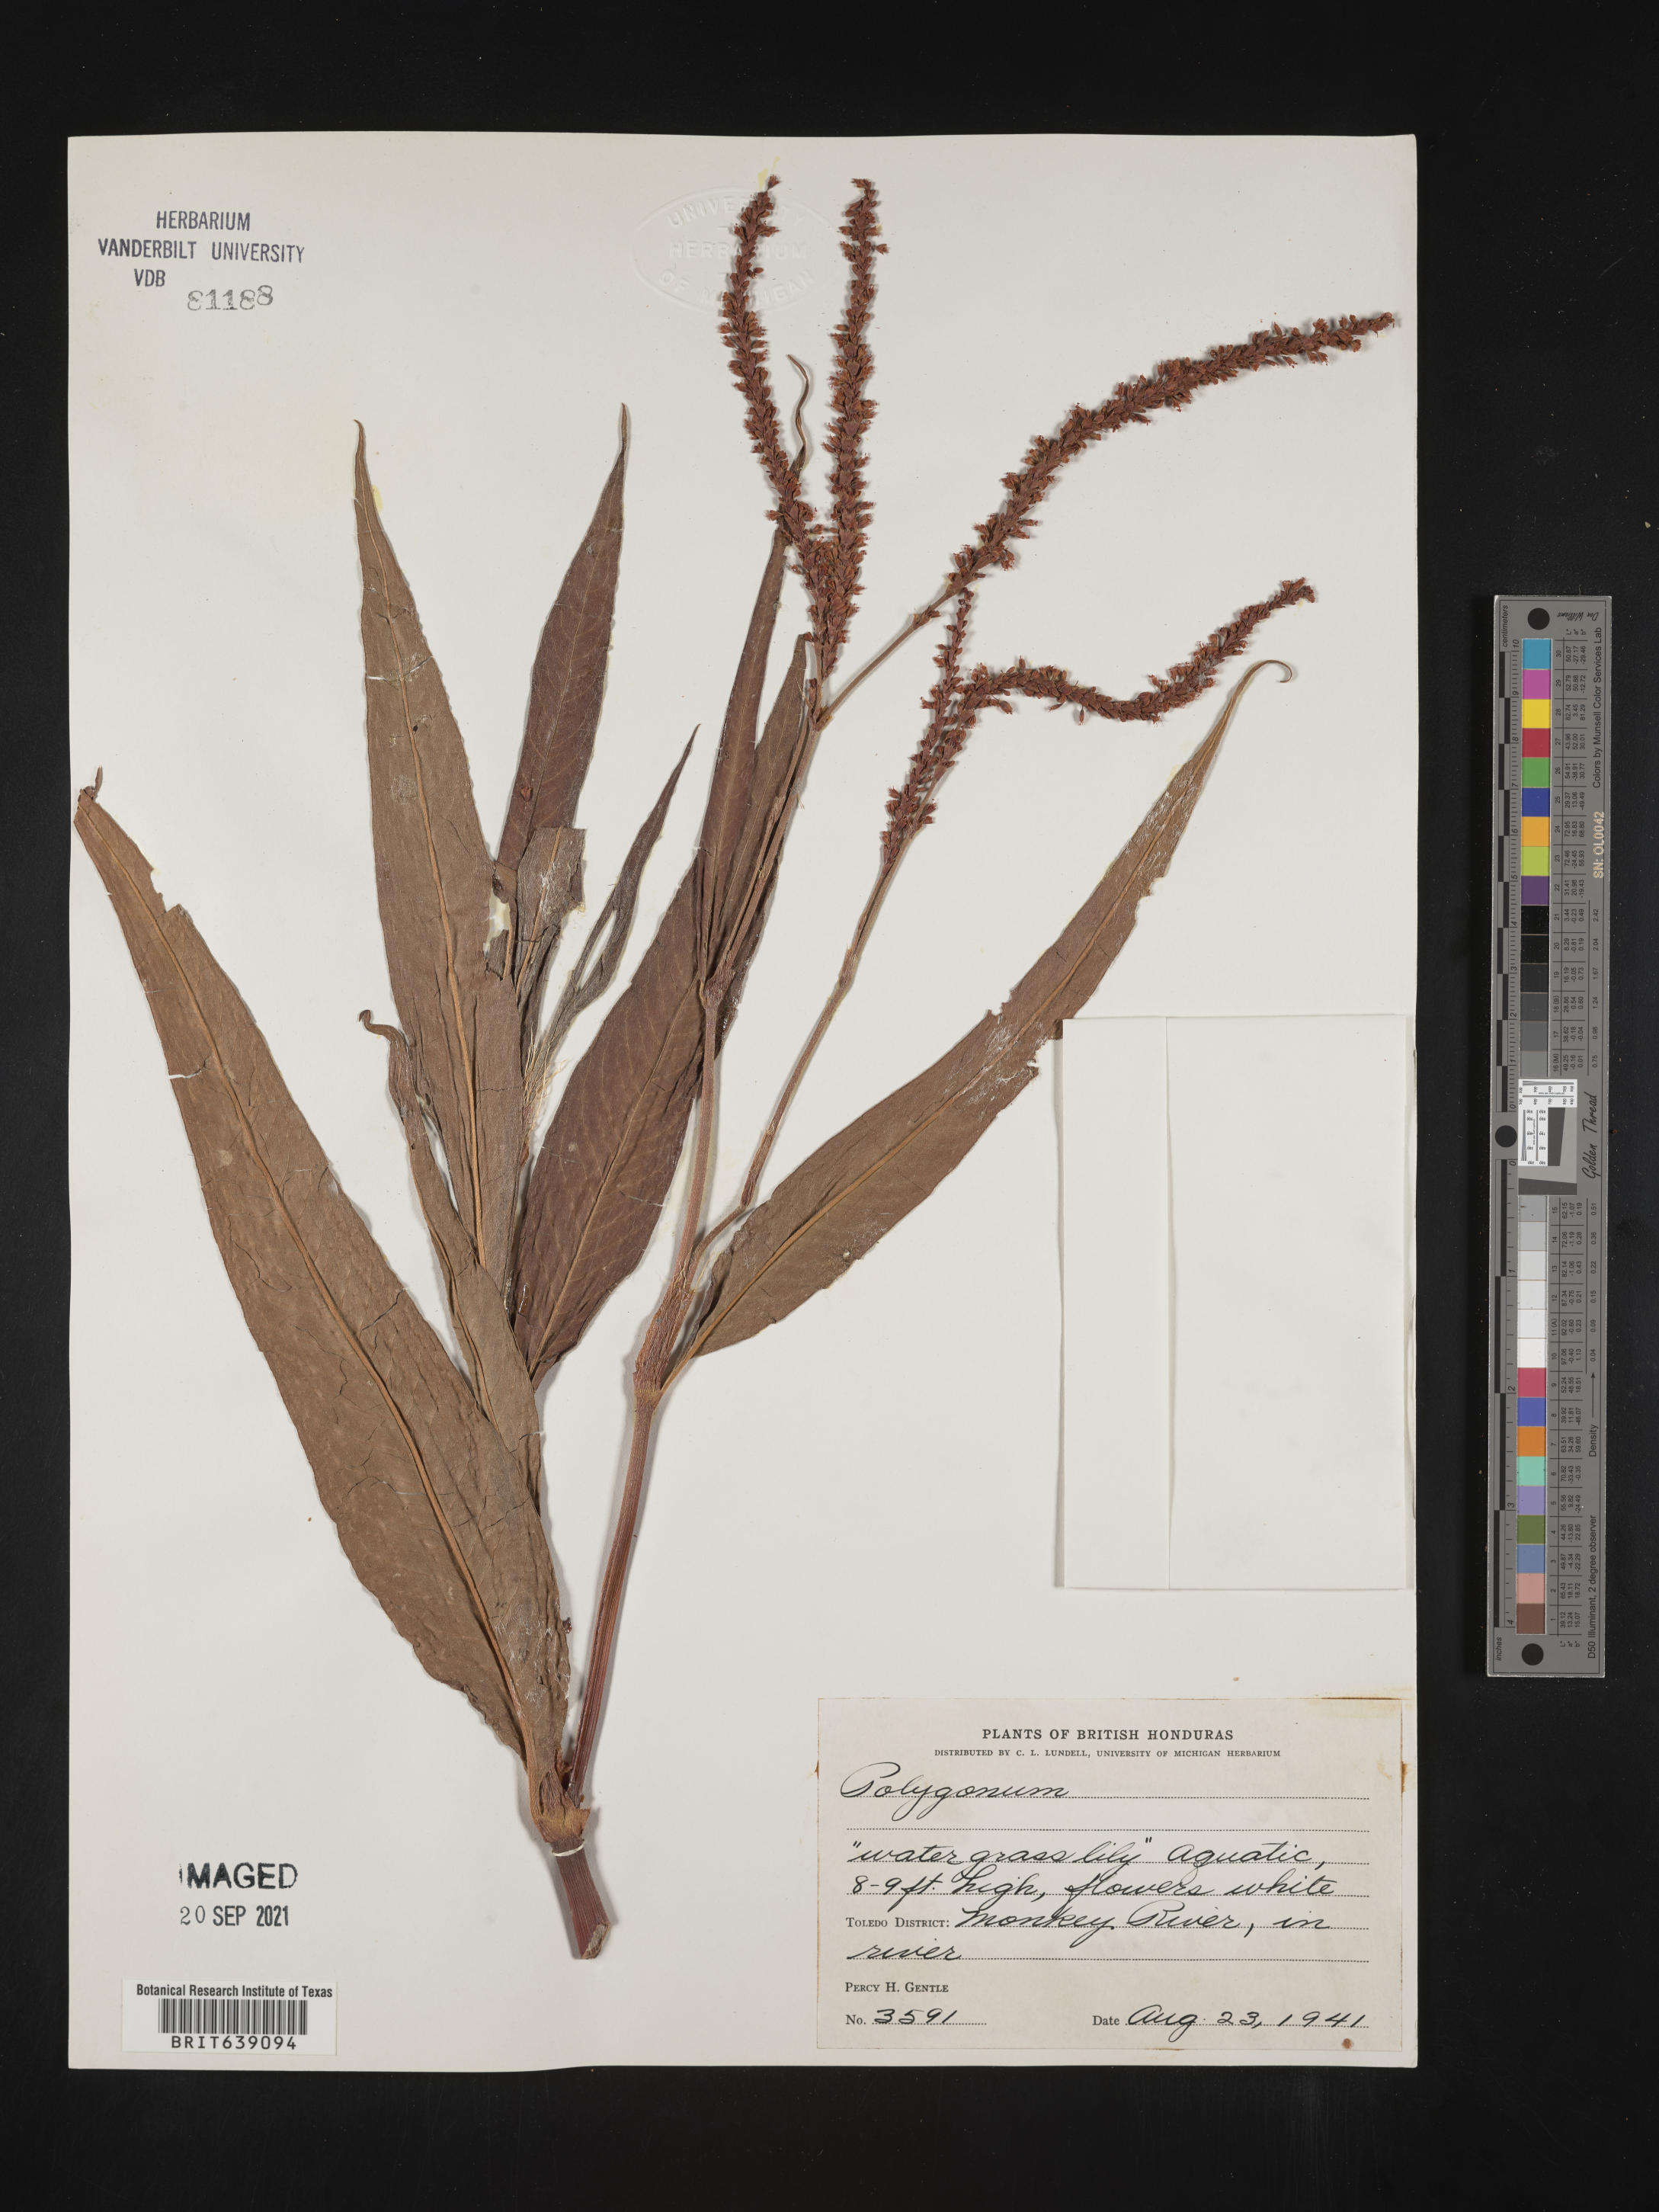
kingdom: Plantae
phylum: Tracheophyta
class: Magnoliopsida
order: Caryophyllales
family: Polygonaceae
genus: Polygonum
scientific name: Polygonum
